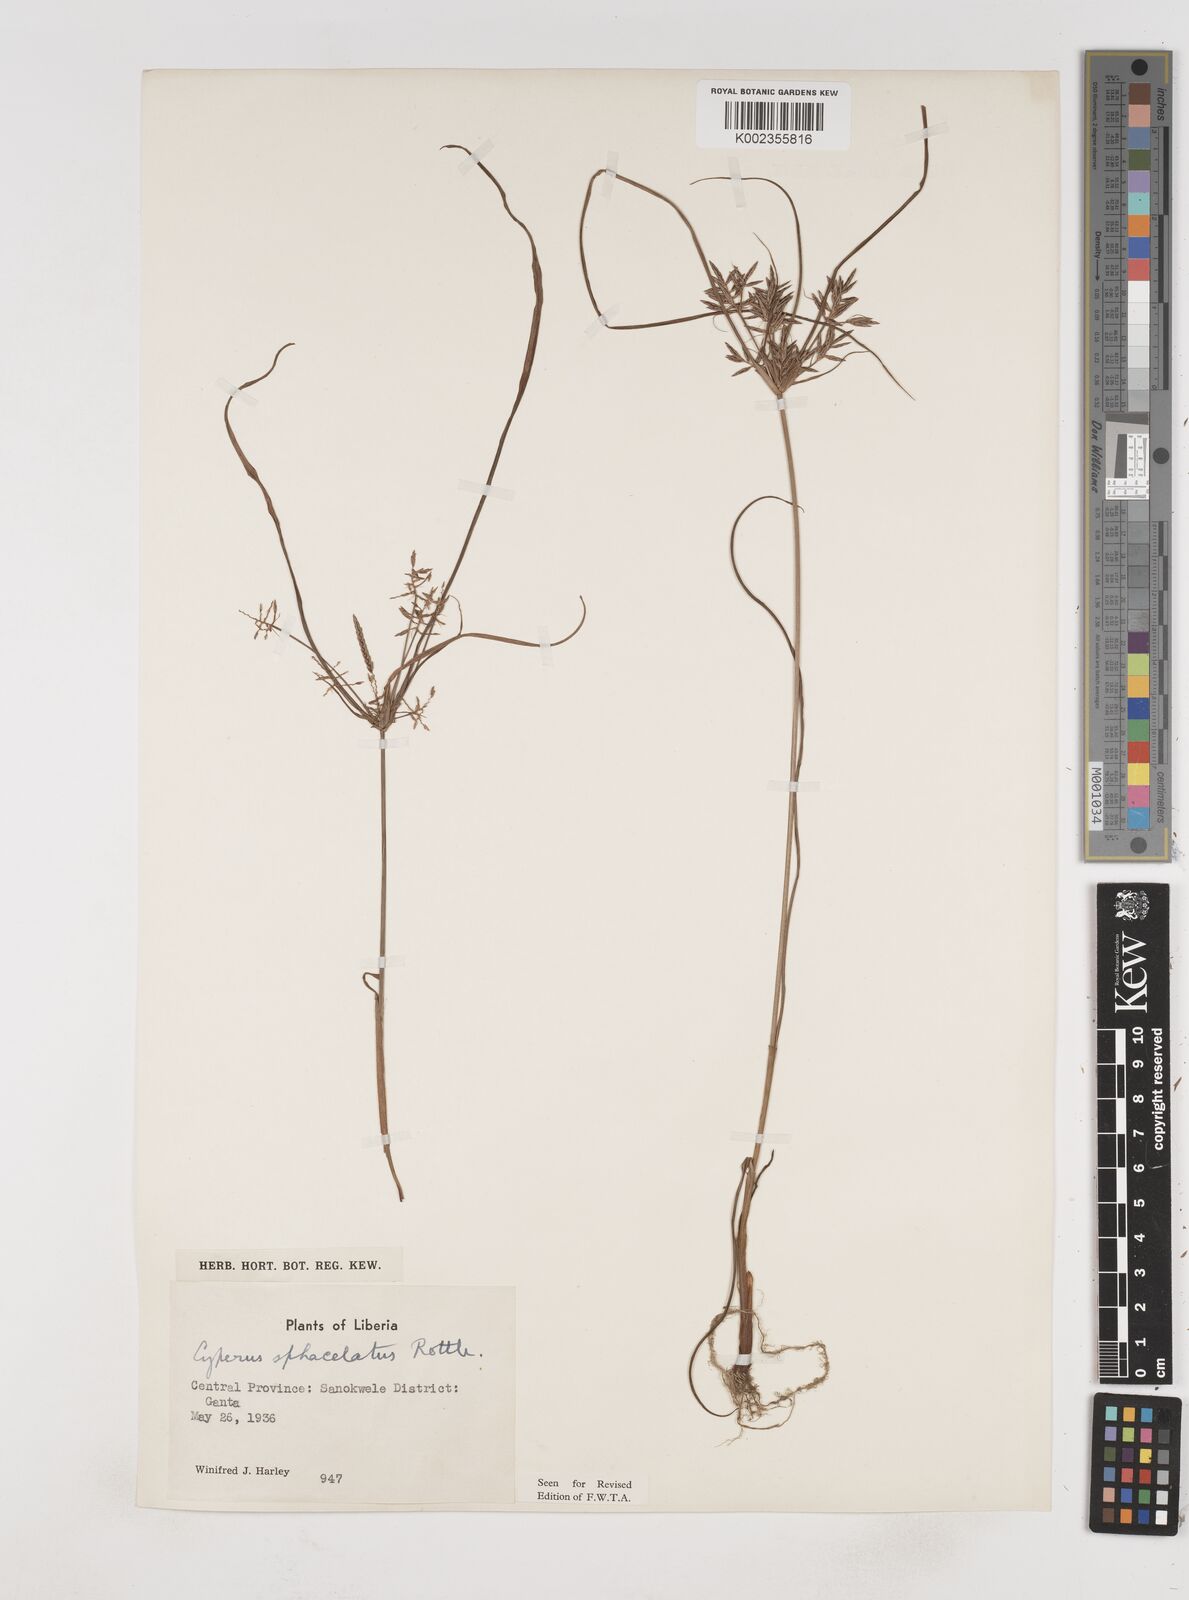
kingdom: Plantae
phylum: Tracheophyta
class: Liliopsida
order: Poales
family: Cyperaceae
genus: Cyperus
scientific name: Cyperus sphacelatus
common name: Roadside flatsedge
